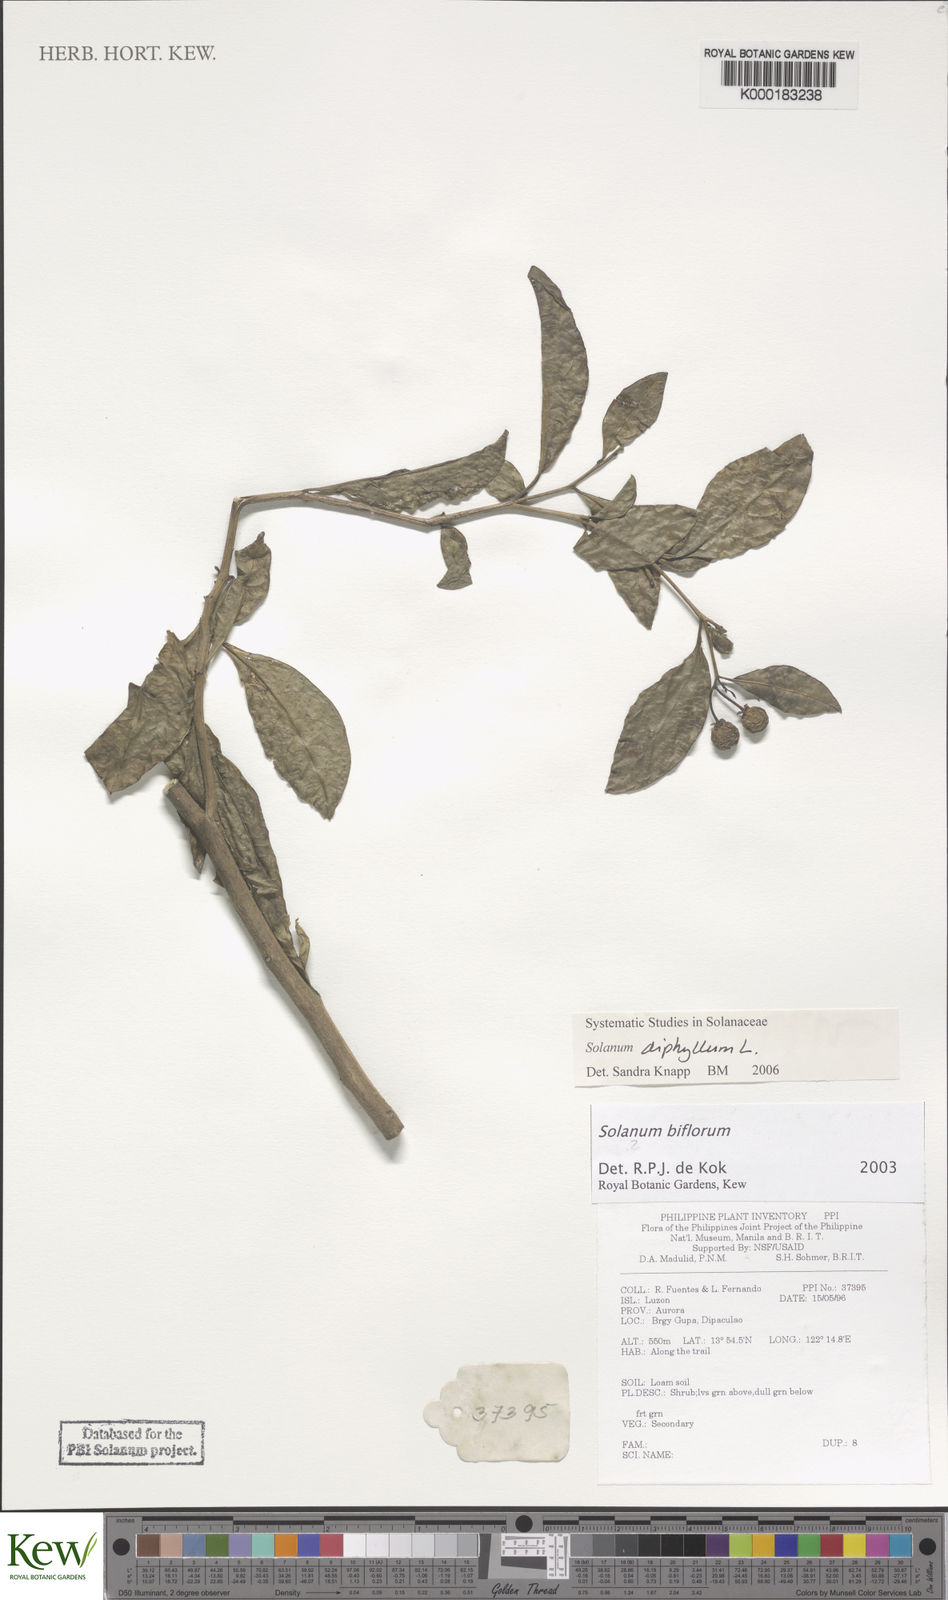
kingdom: Plantae
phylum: Tracheophyta
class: Magnoliopsida
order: Solanales
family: Solanaceae
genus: Lycianthes
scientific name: Lycianthes biflora
